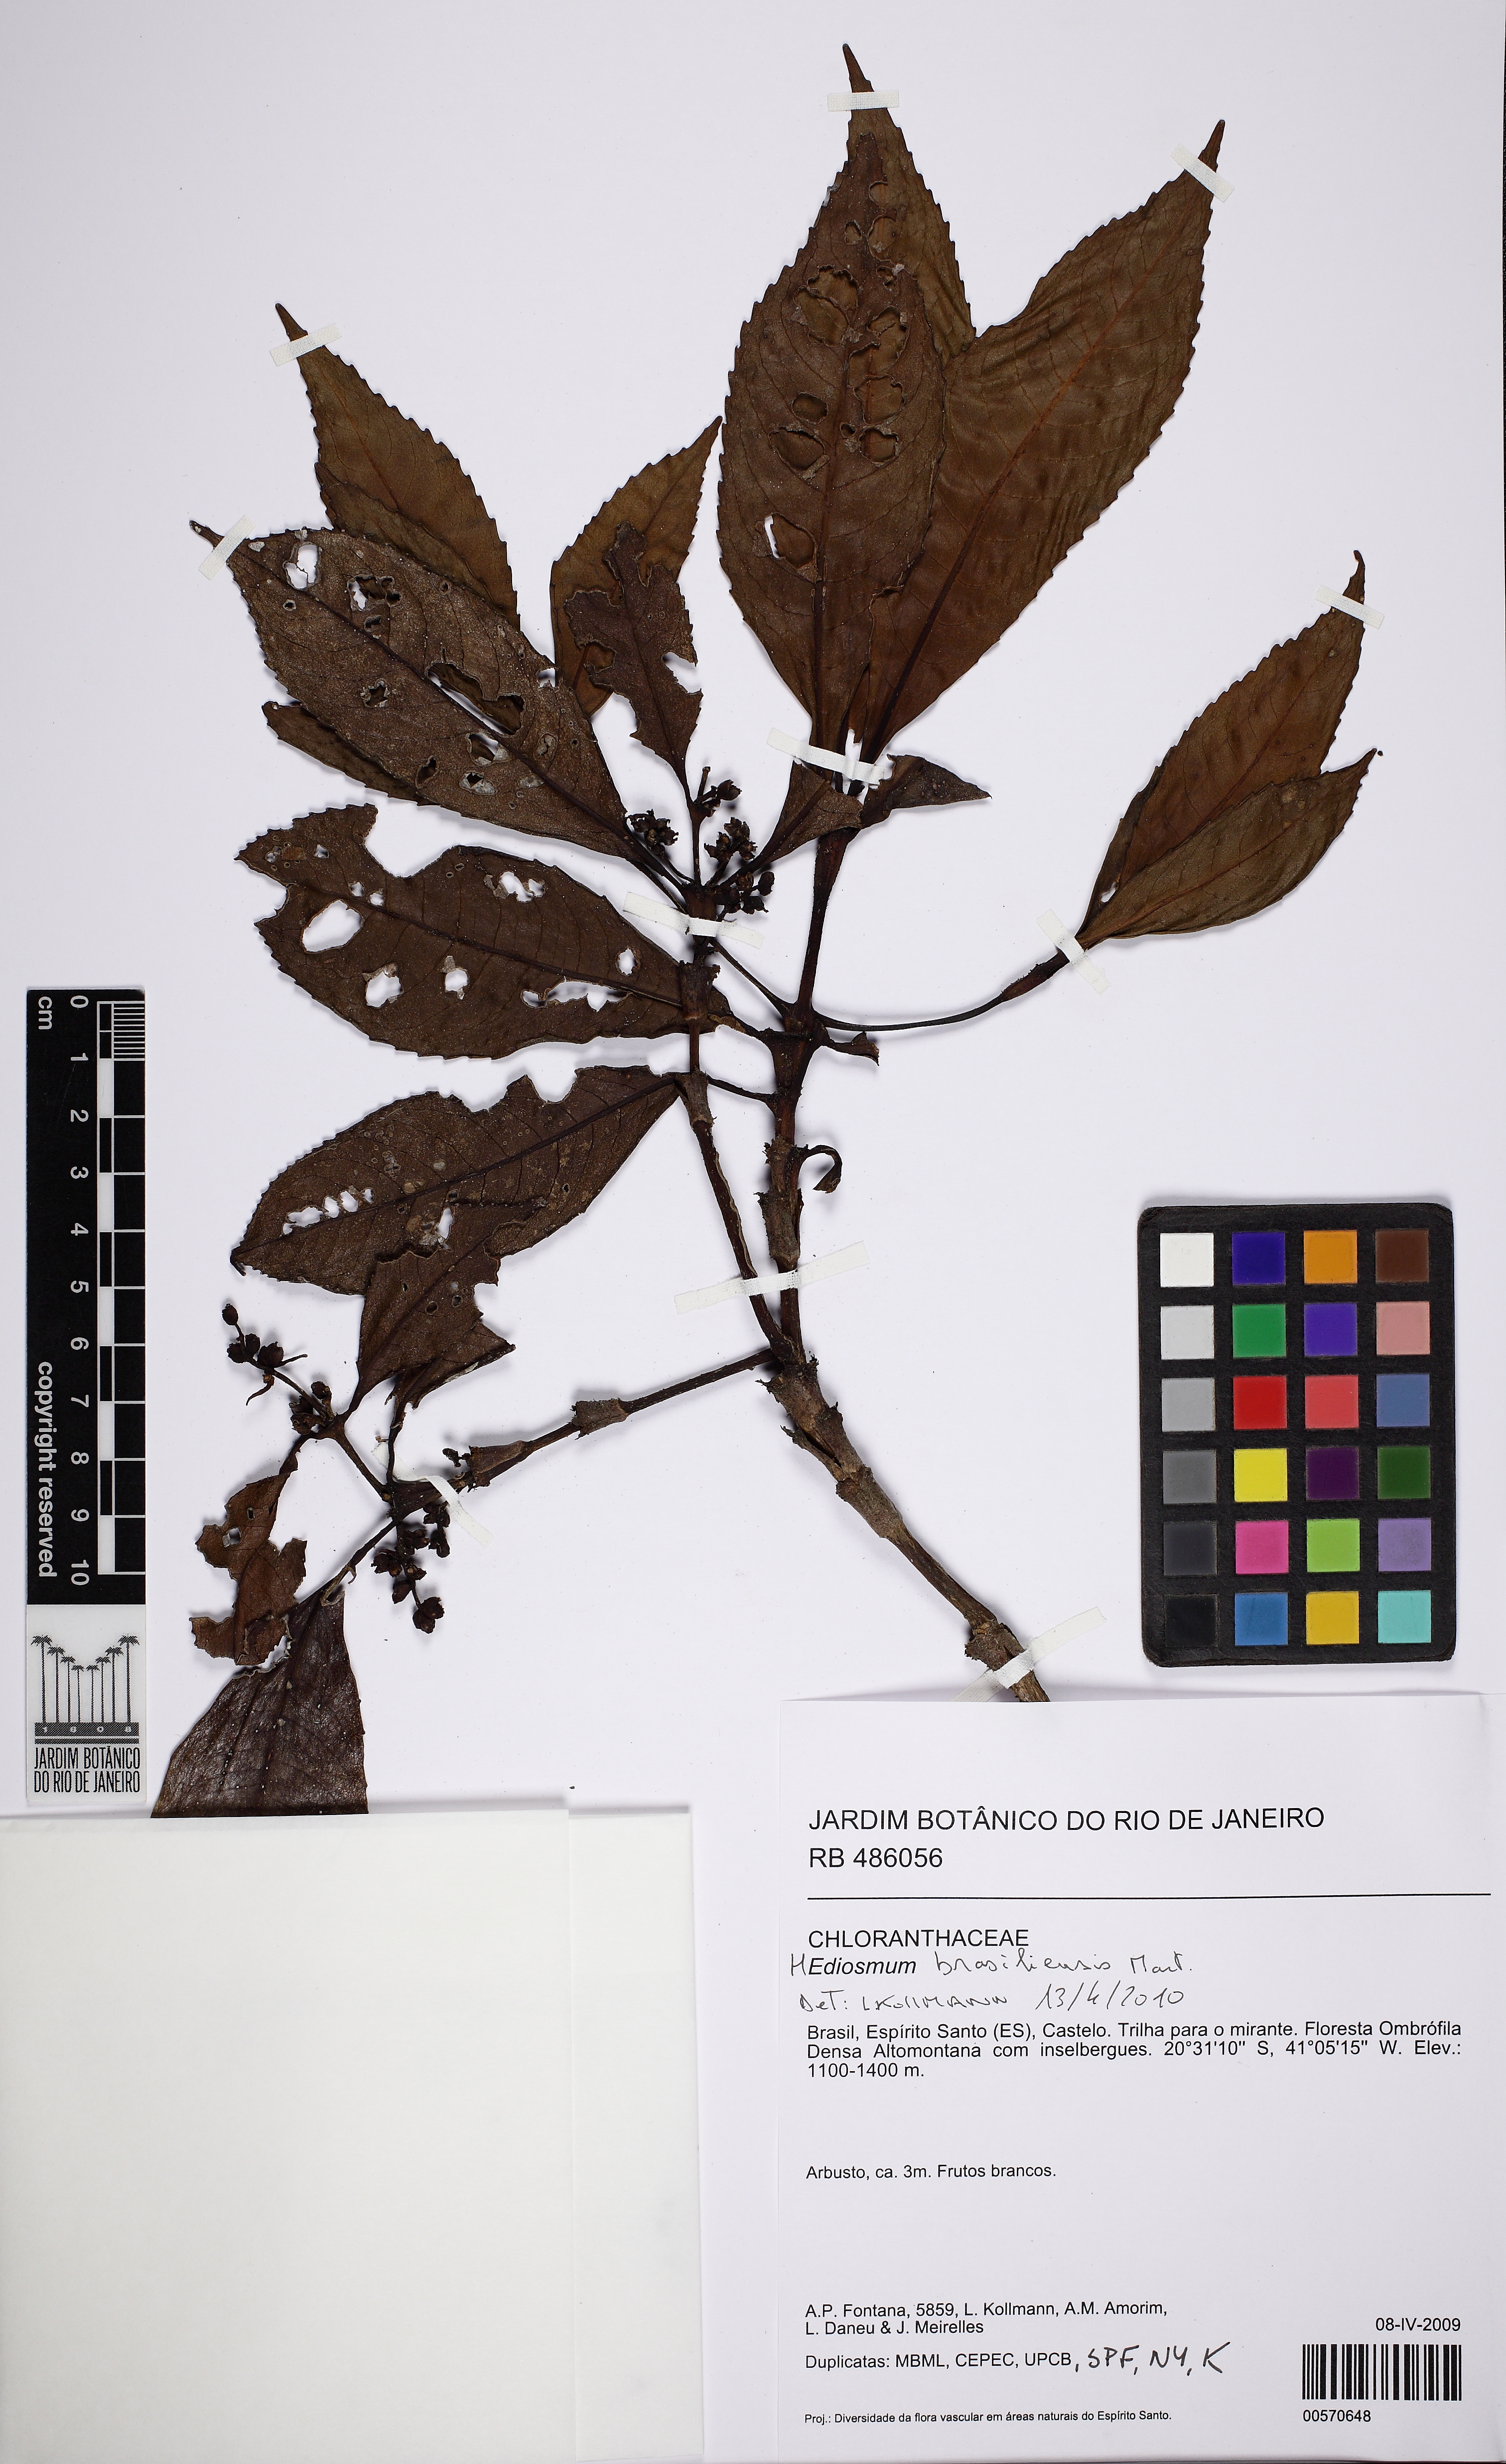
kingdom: Plantae
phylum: Tracheophyta
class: Magnoliopsida
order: Chloranthales
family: Chloranthaceae
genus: Hedyosmum
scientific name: Hedyosmum brasiliense
